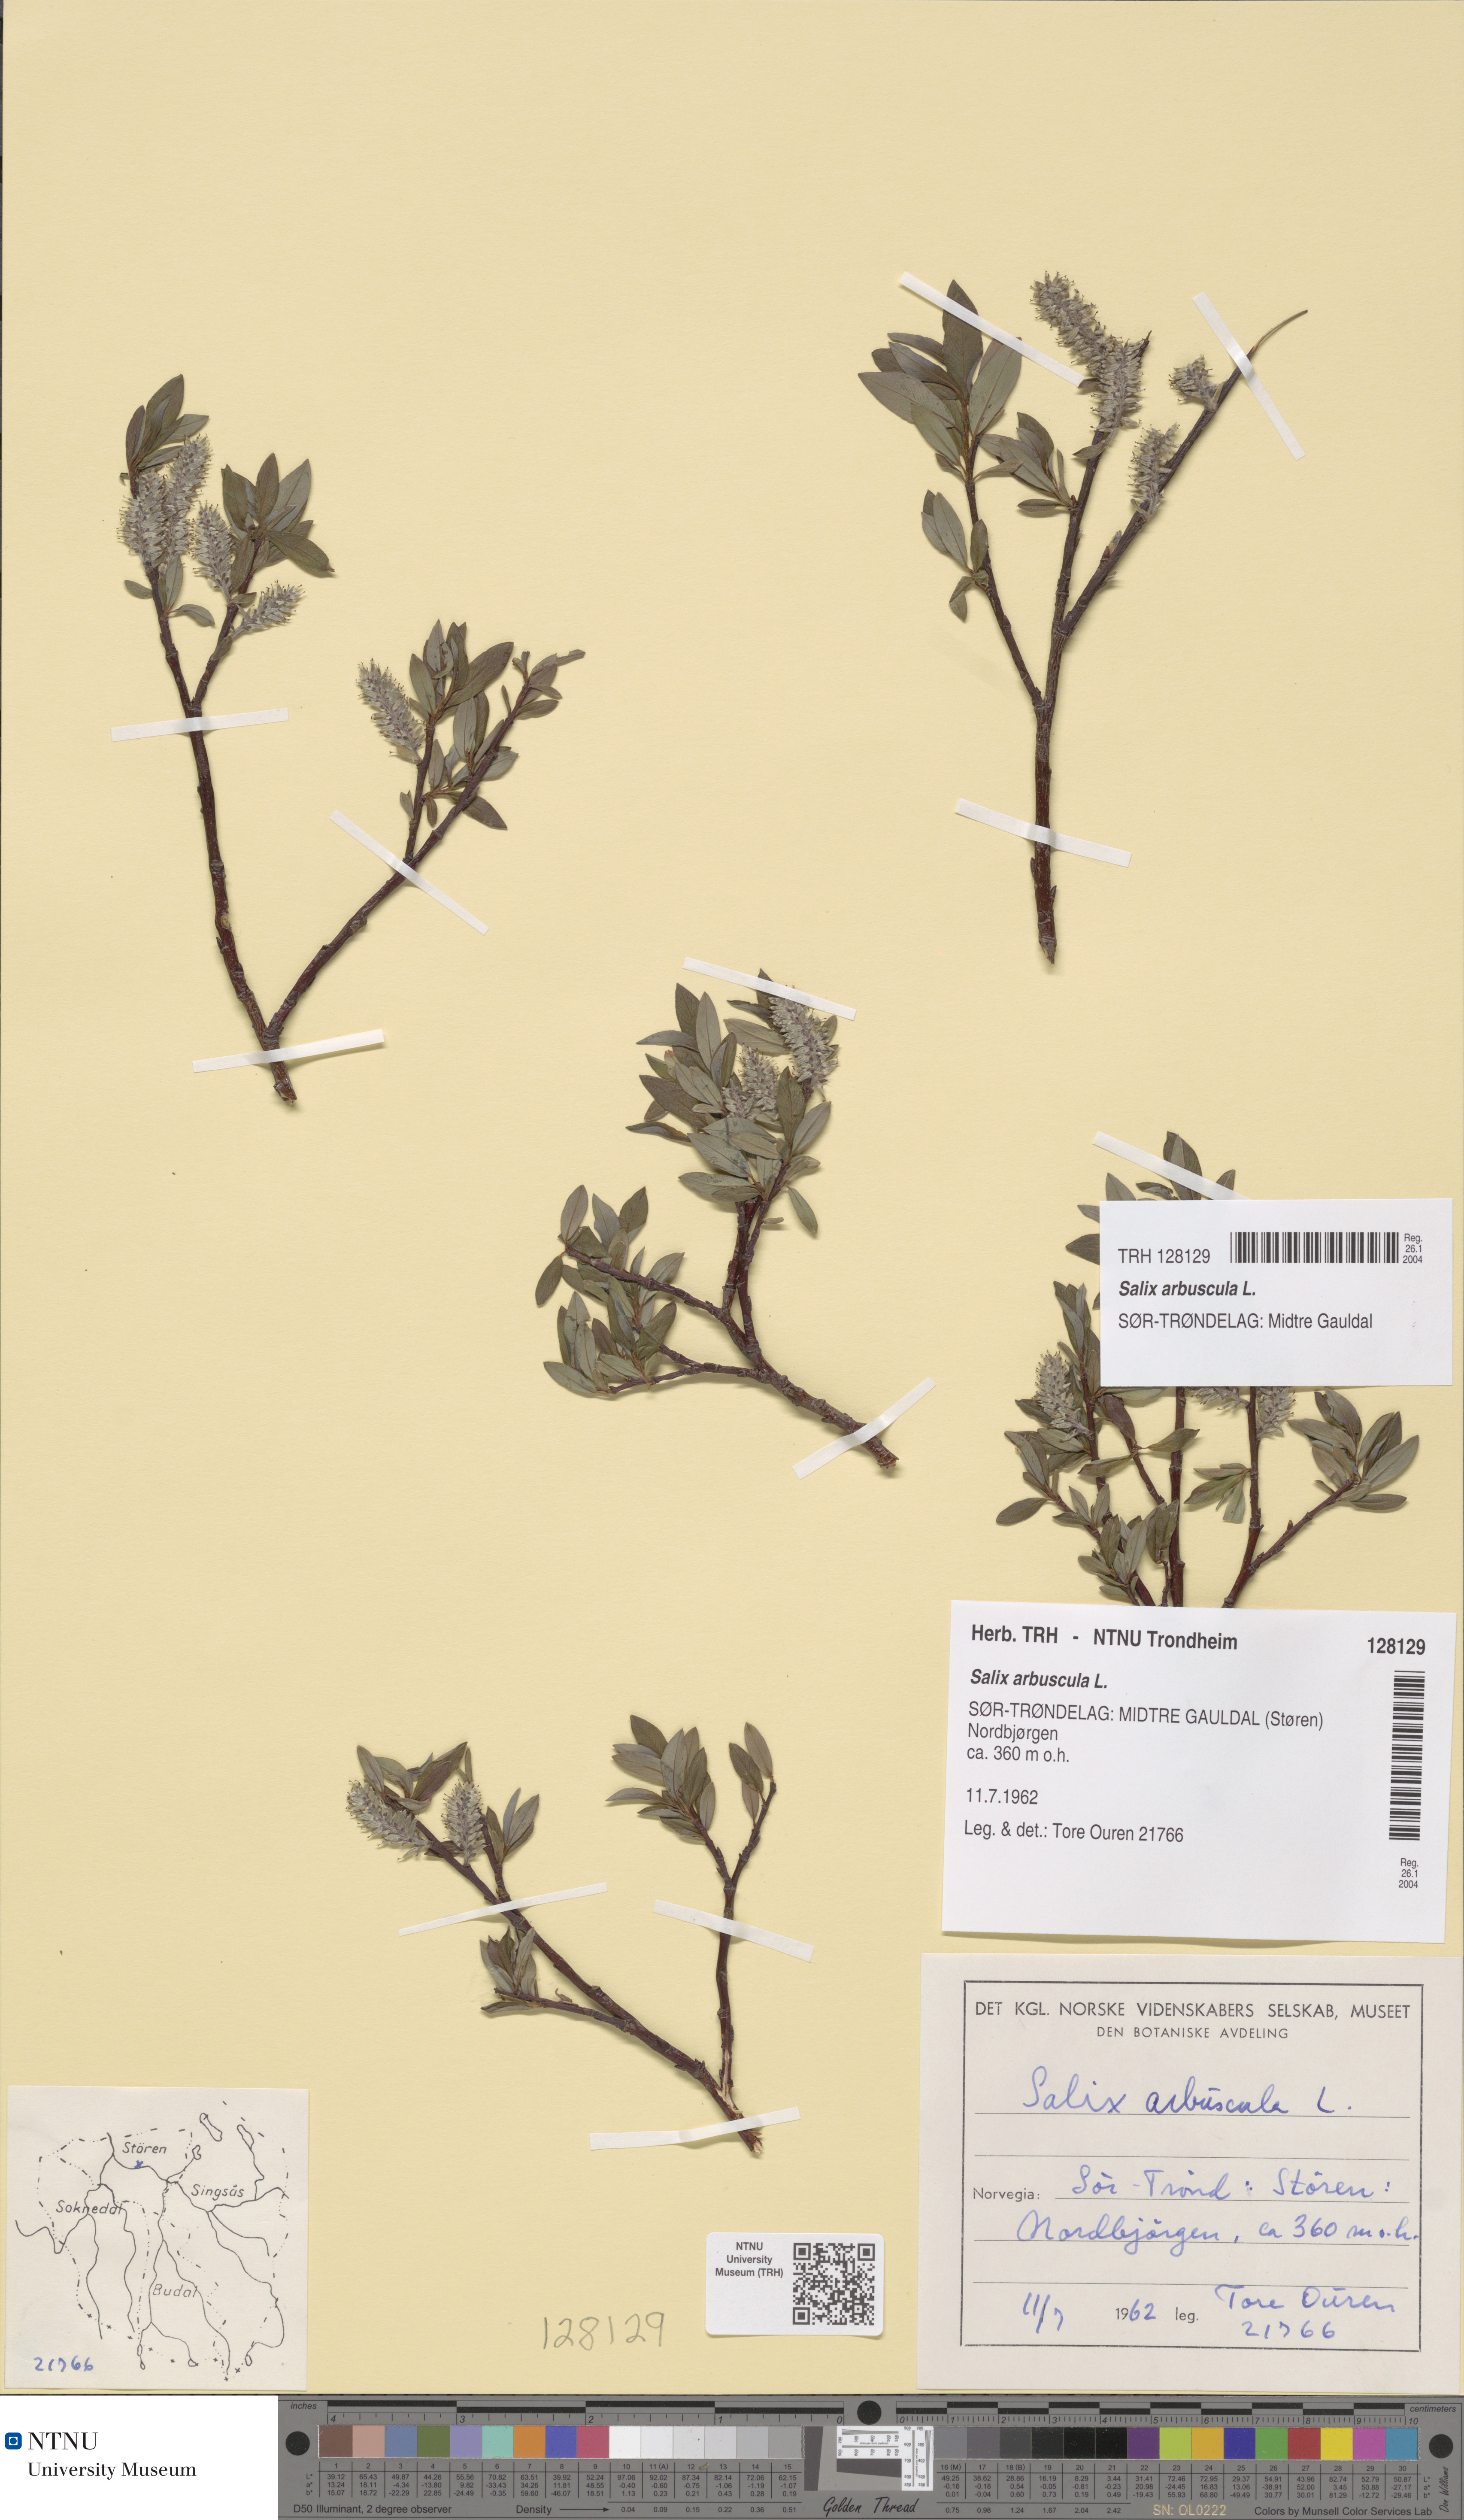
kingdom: Plantae
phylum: Tracheophyta
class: Magnoliopsida
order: Malpighiales
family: Salicaceae
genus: Salix
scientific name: Salix arbuscula
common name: Mountain willow
